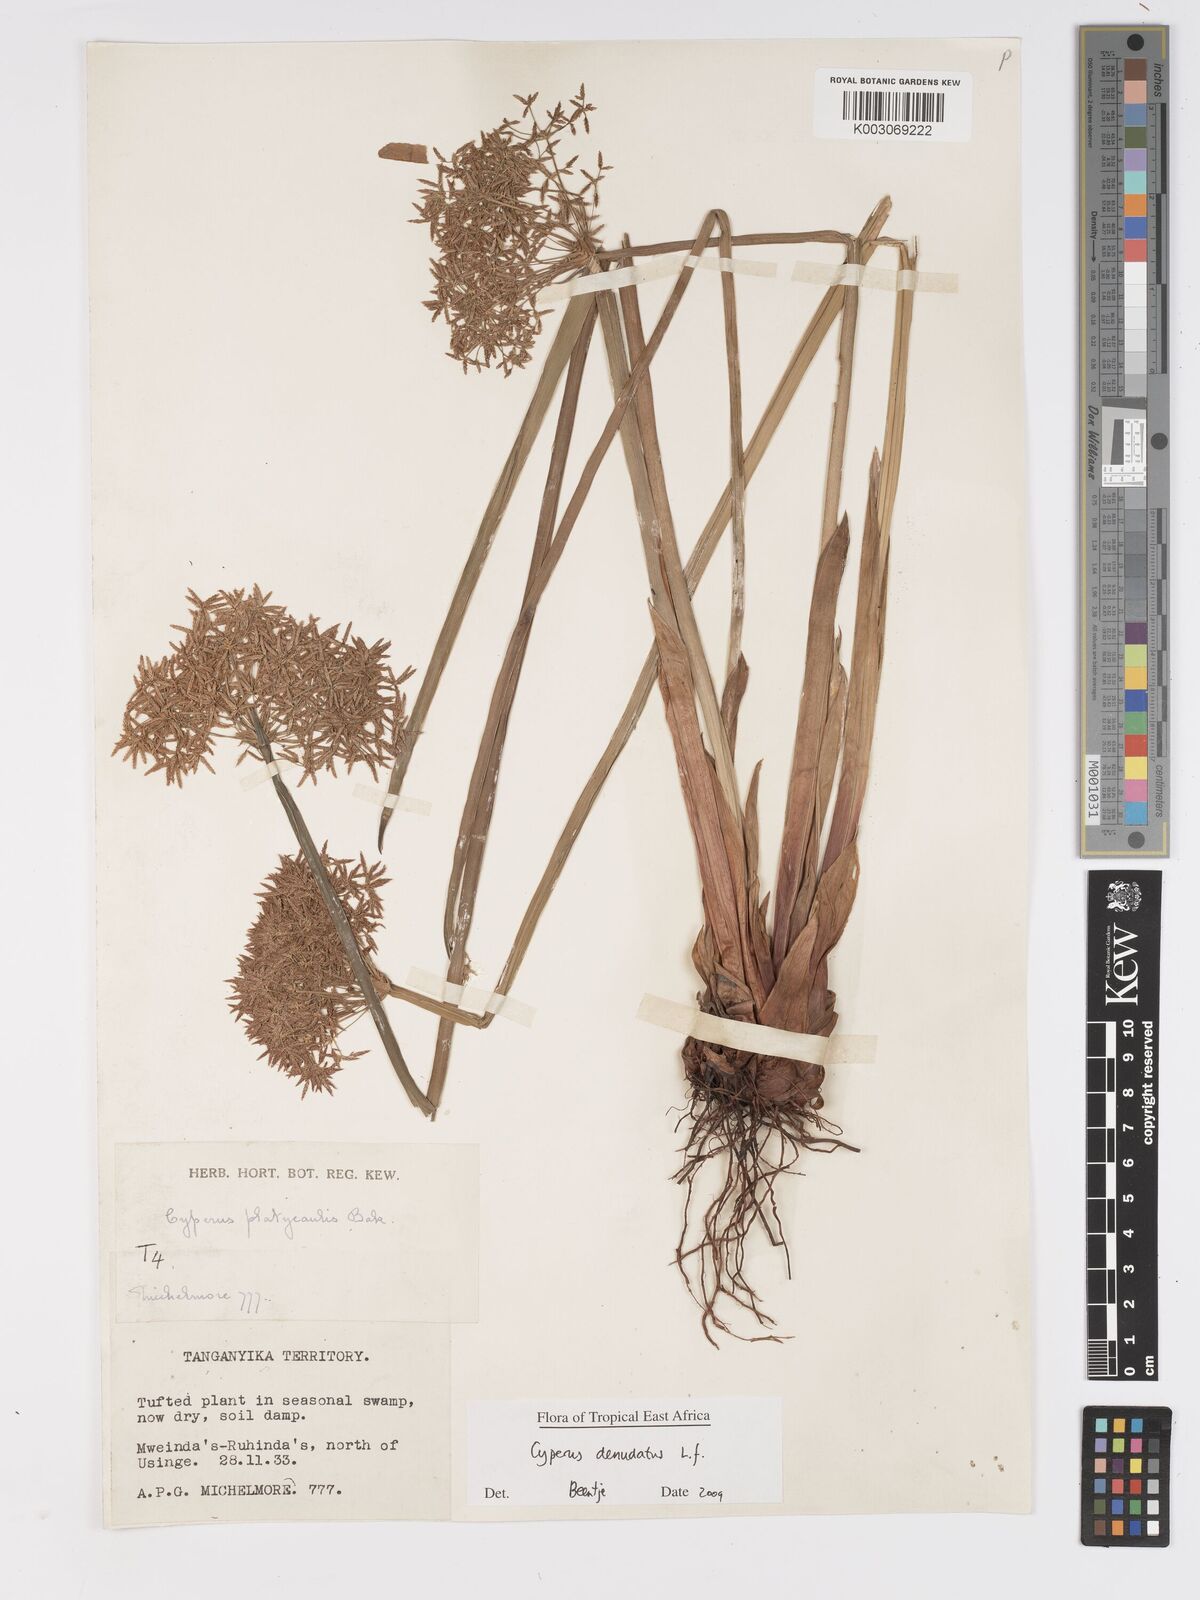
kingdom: Plantae
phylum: Tracheophyta
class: Liliopsida
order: Poales
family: Cyperaceae
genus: Cyperus
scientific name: Cyperus denudatus
